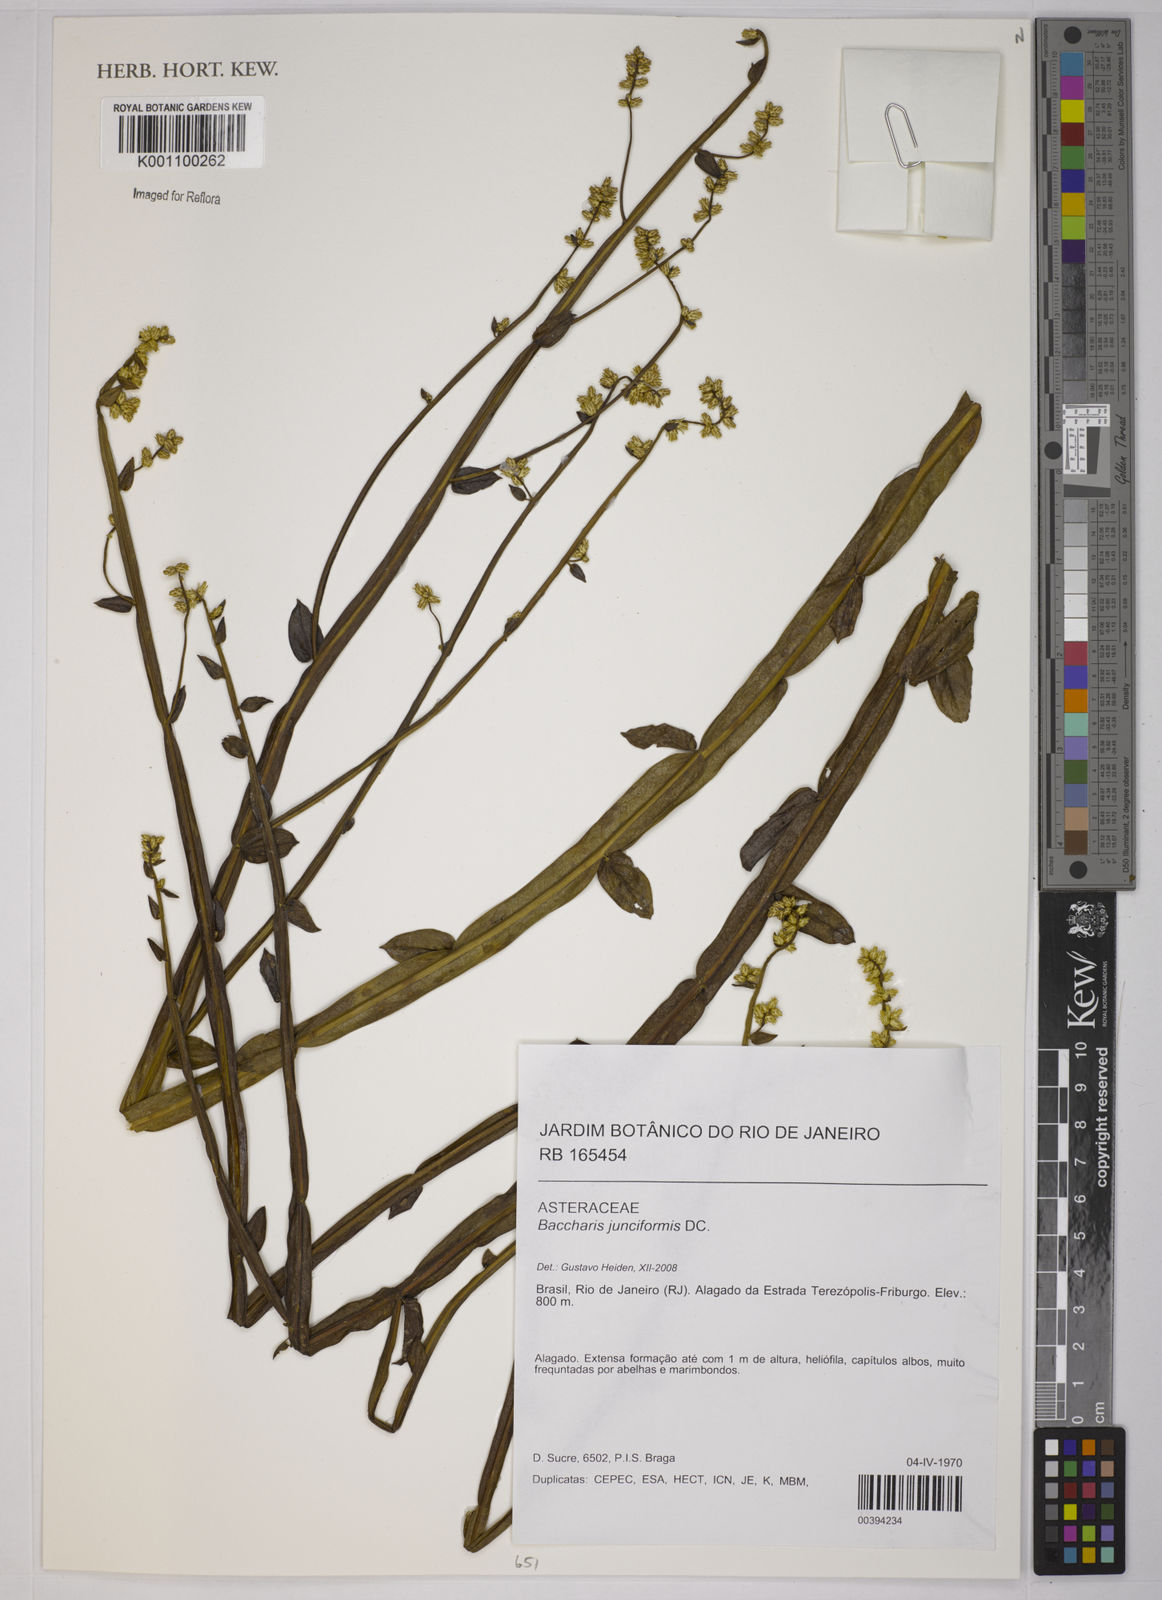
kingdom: Plantae
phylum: Tracheophyta
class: Magnoliopsida
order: Asterales
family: Asteraceae
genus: Baccharis
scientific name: Baccharis junciformis
